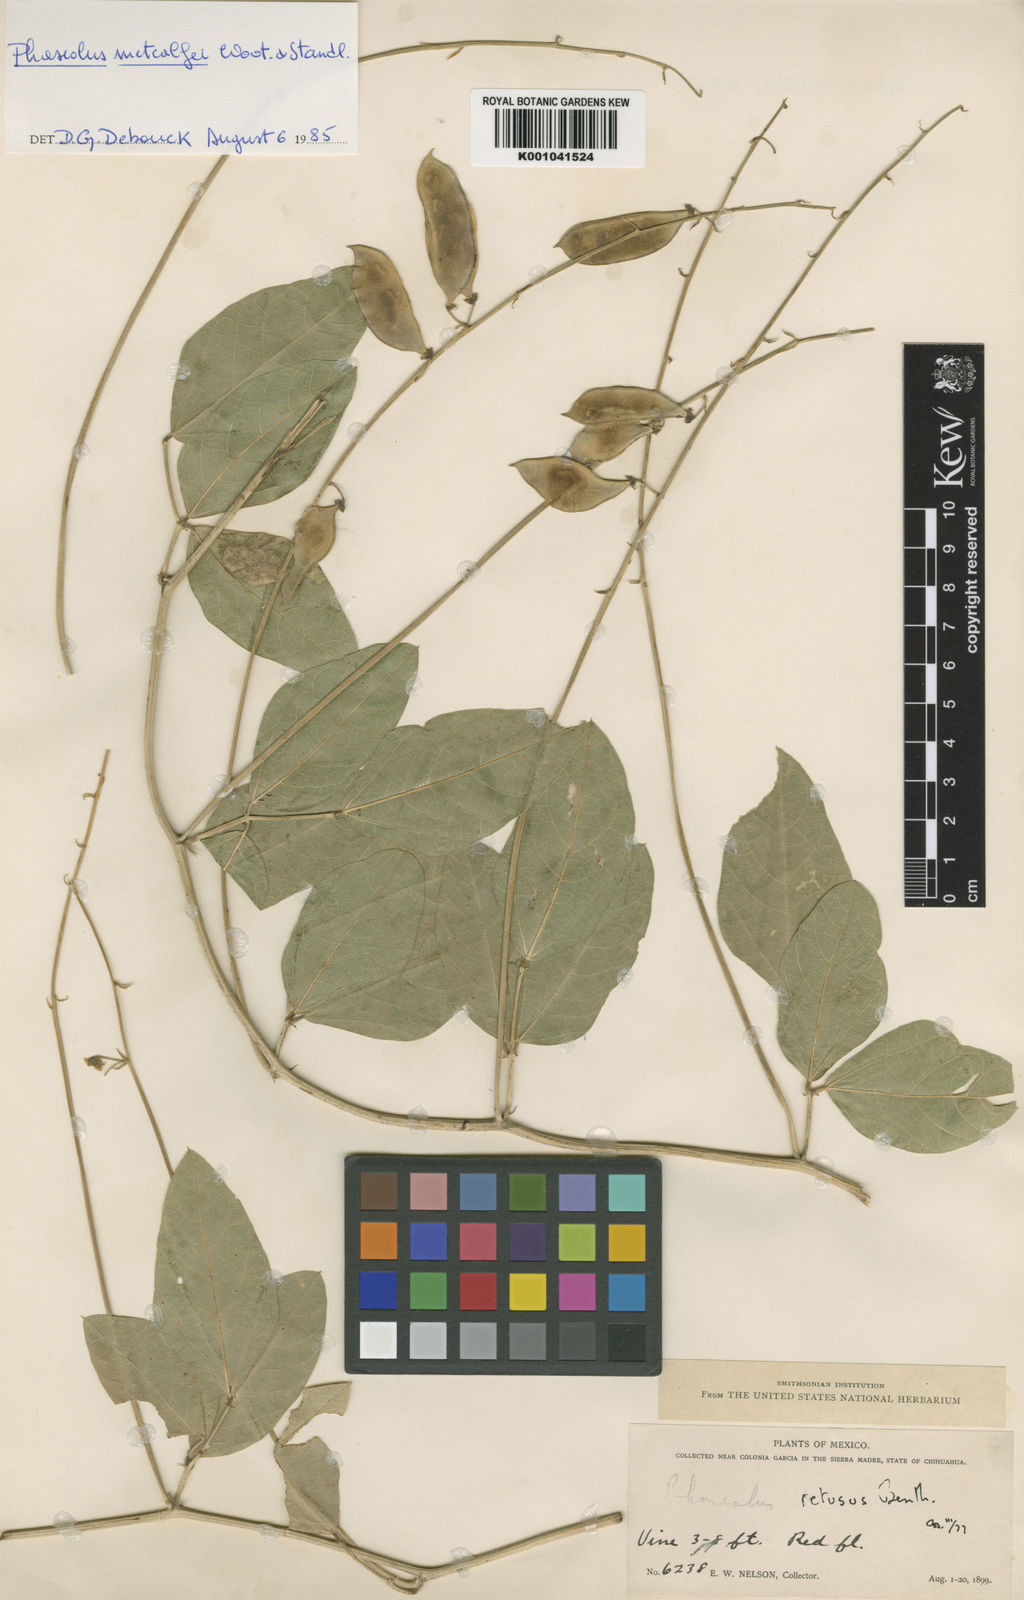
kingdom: Plantae
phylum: Tracheophyta
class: Magnoliopsida
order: Fabales
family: Fabaceae
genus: Phaseolus
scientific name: Phaseolus maculatus
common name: Metcalfe bean
